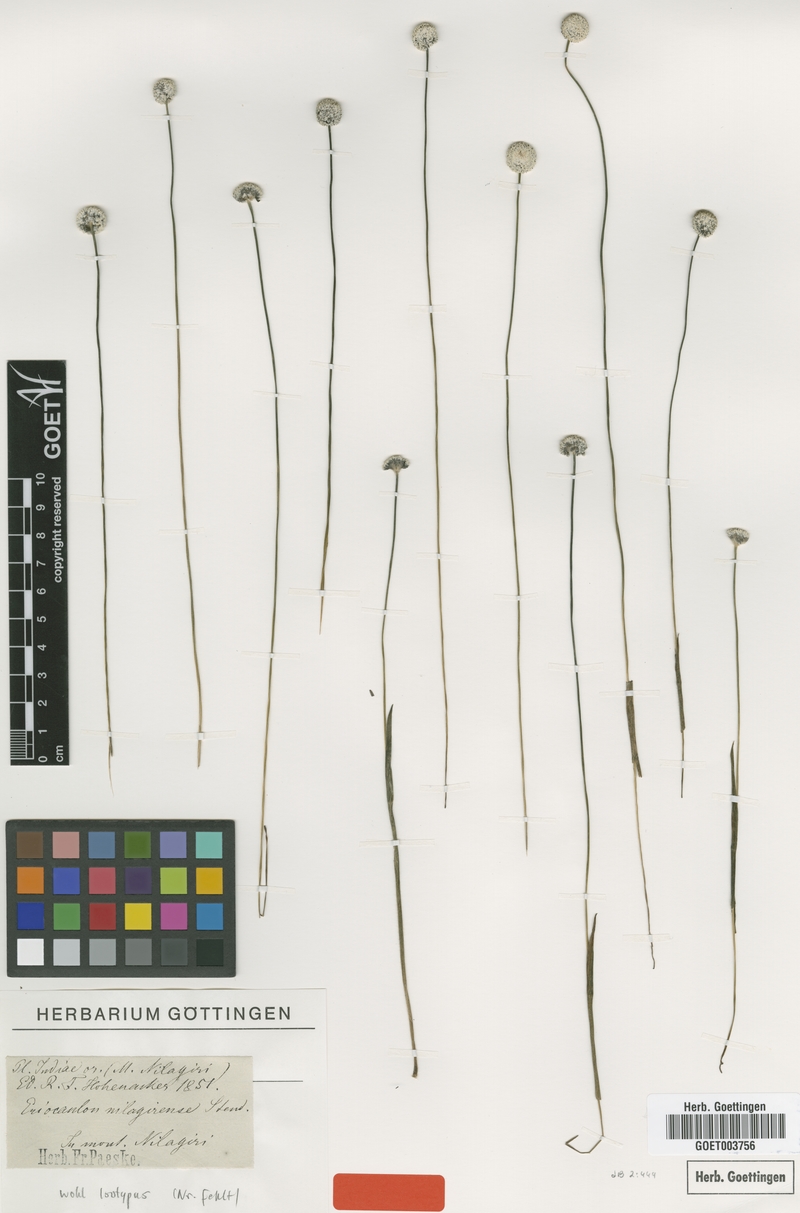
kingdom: Plantae
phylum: Tracheophyta
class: Liliopsida
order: Poales
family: Eriocaulaceae
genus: Eriocaulon
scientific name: Eriocaulon brownianum
